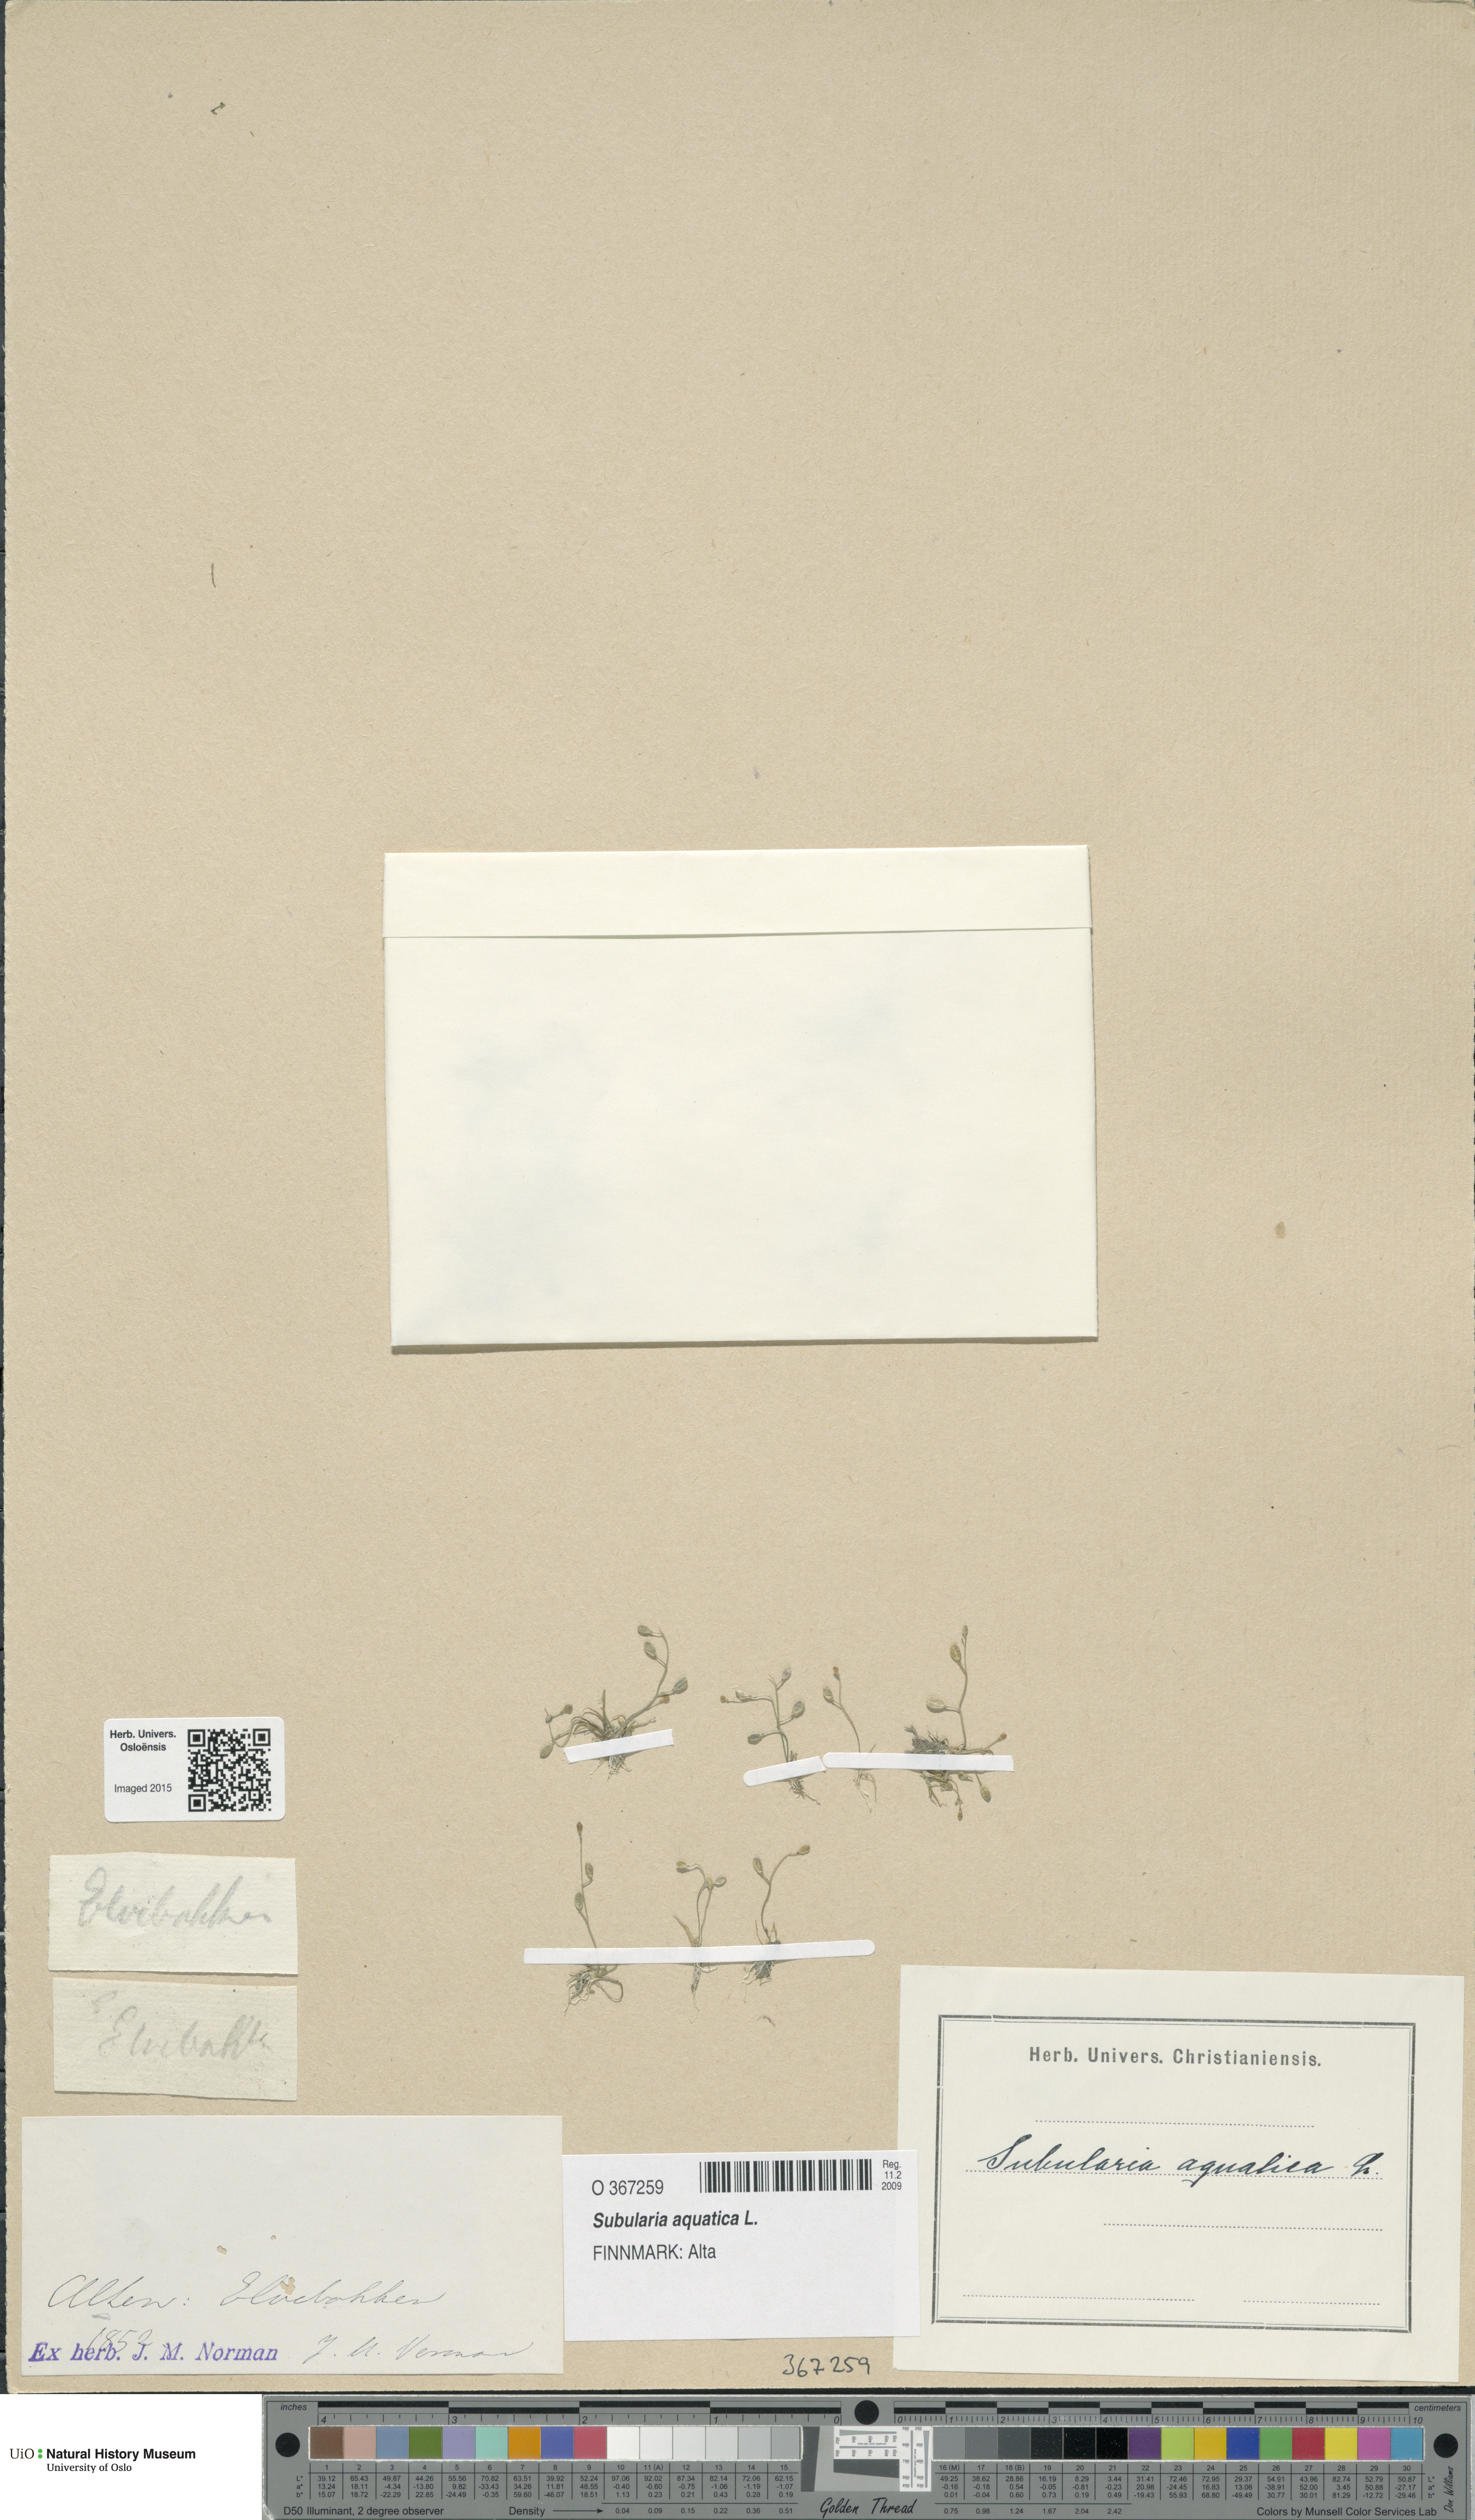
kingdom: Plantae
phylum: Tracheophyta
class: Magnoliopsida
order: Brassicales
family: Brassicaceae
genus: Subularia
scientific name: Subularia aquatica
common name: Awlwort
